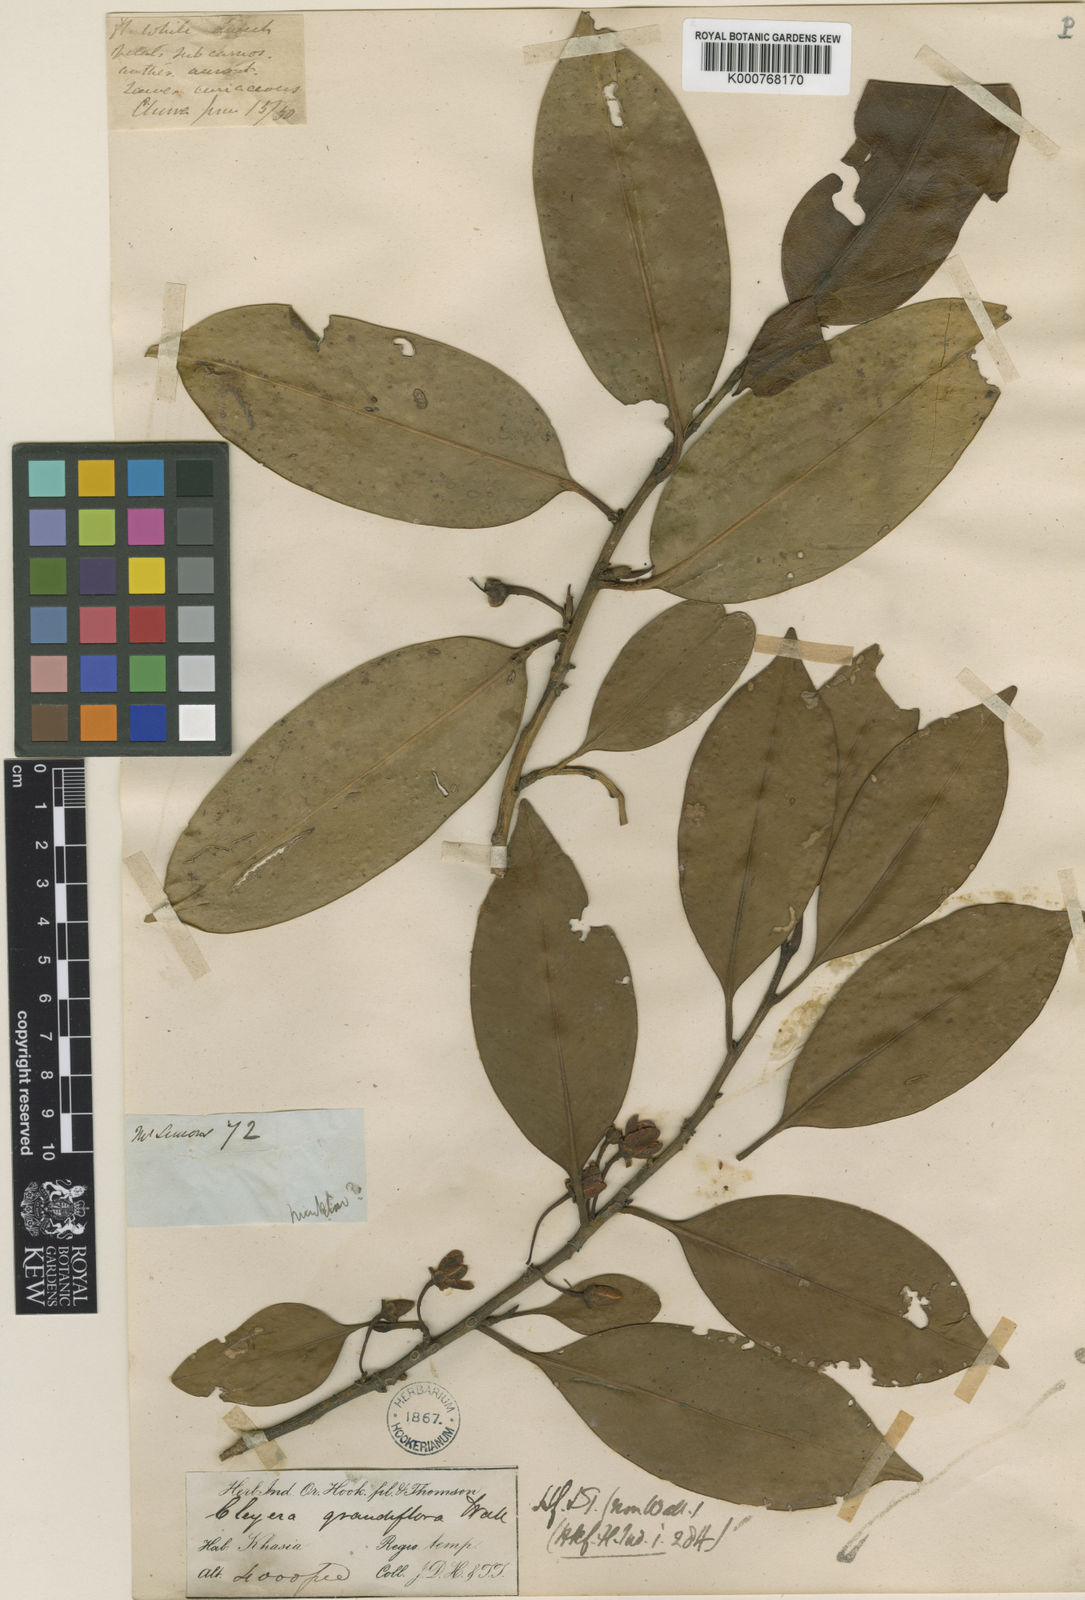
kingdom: Plantae
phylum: Tracheophyta
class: Magnoliopsida
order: Ericales
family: Pentaphylacaceae
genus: Cleyera
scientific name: Cleyera
